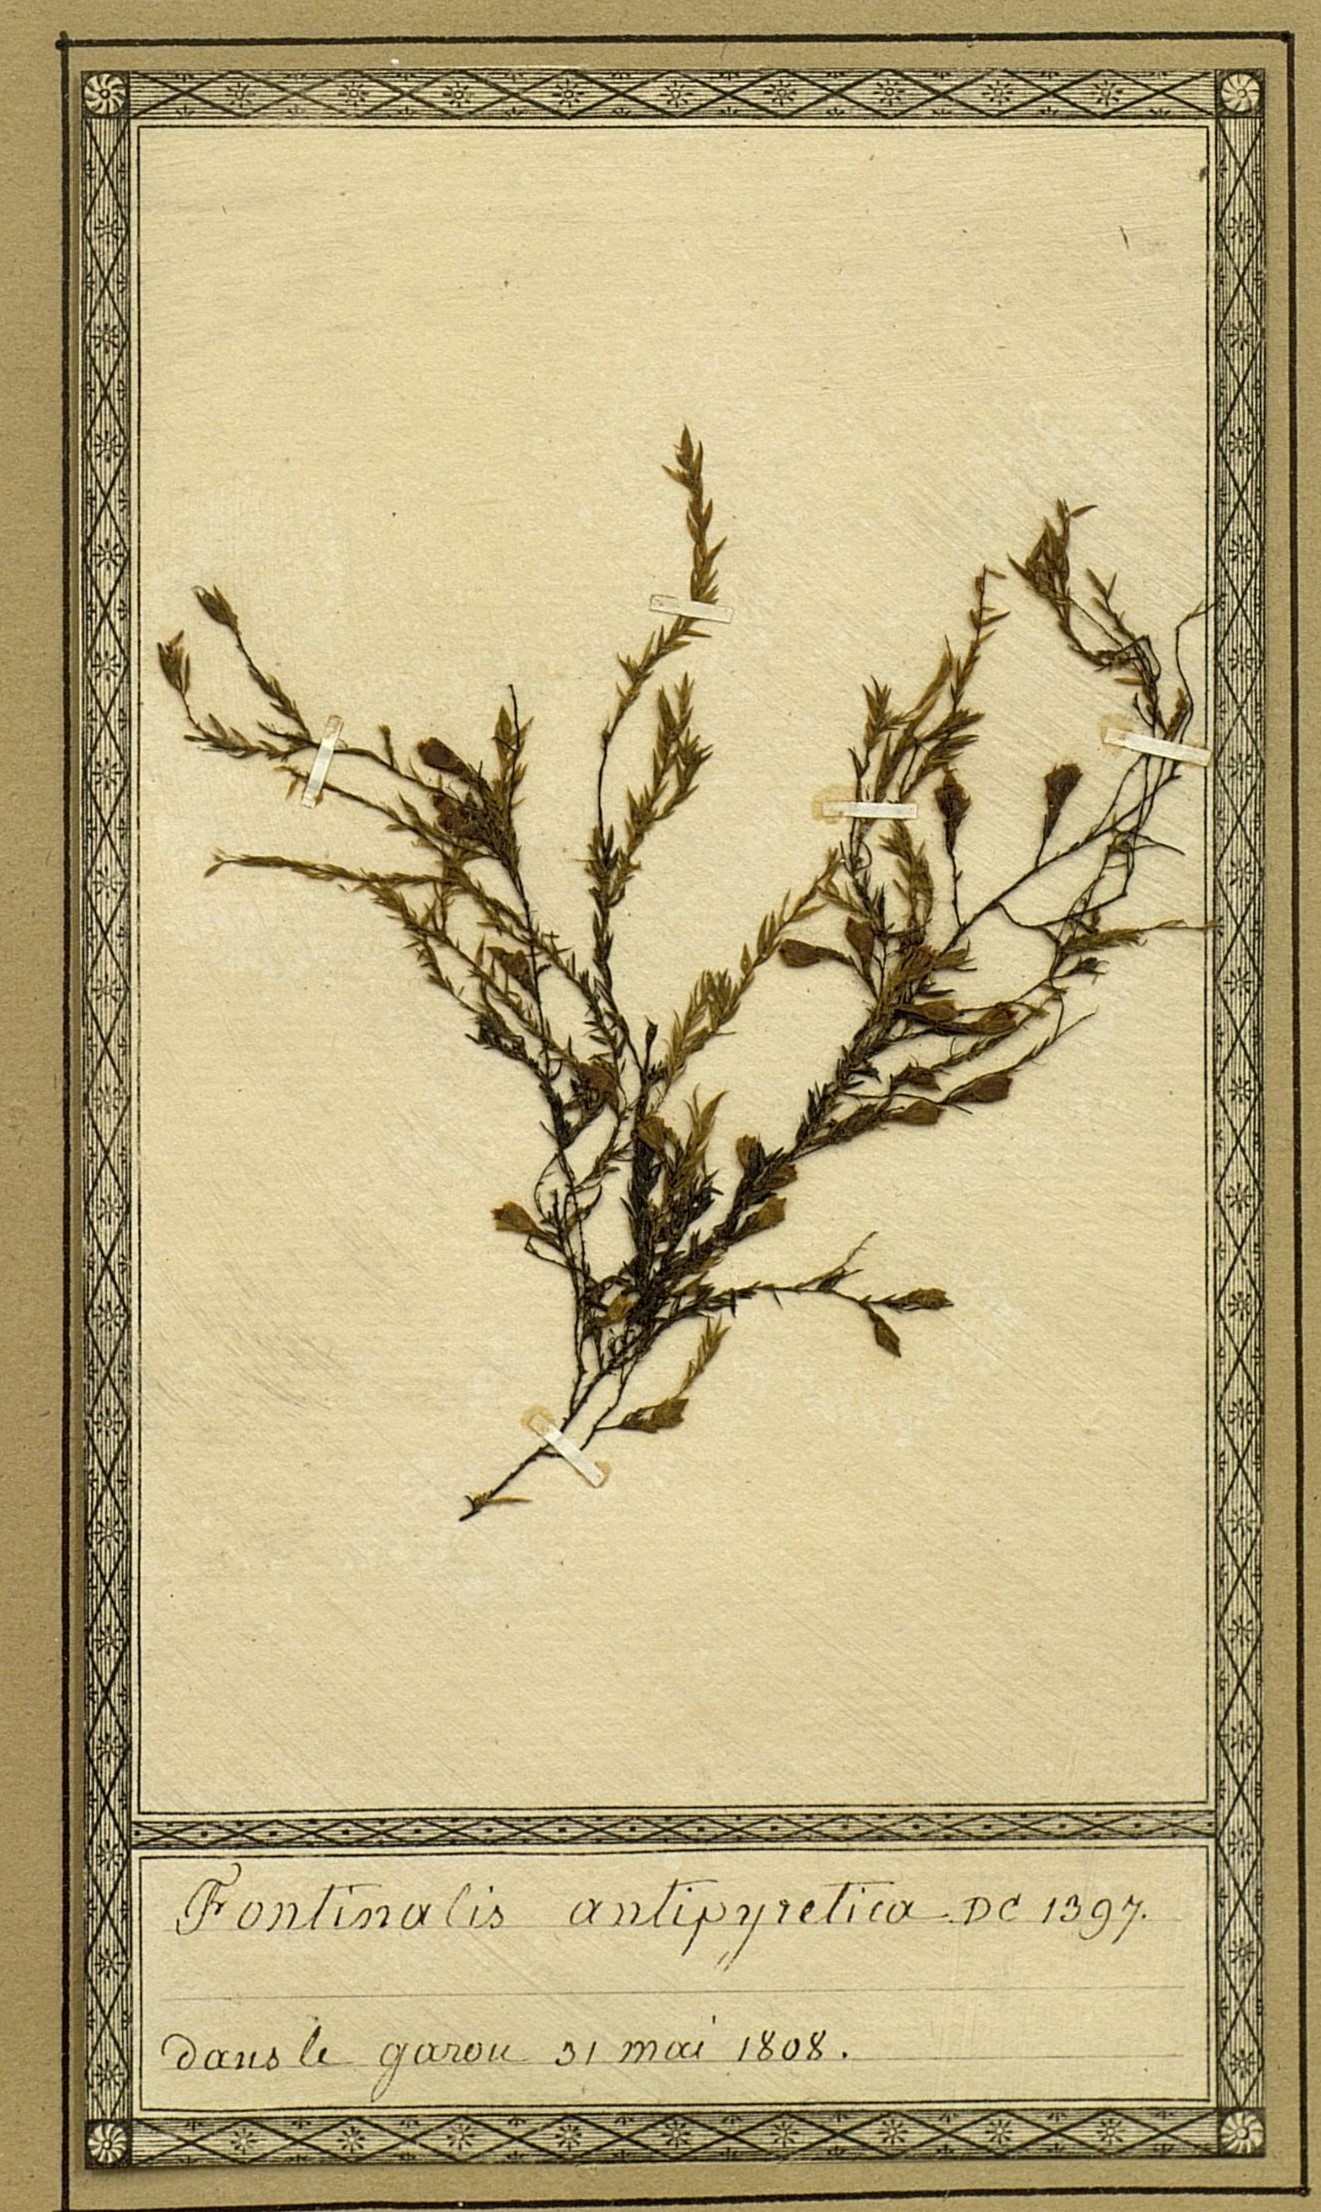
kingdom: Plantae
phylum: Bryophyta
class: Bryopsida
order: Hypnales
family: Fontinalaceae
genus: Fontinalis
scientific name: Fontinalis antipyretica
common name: Greater water-moss
